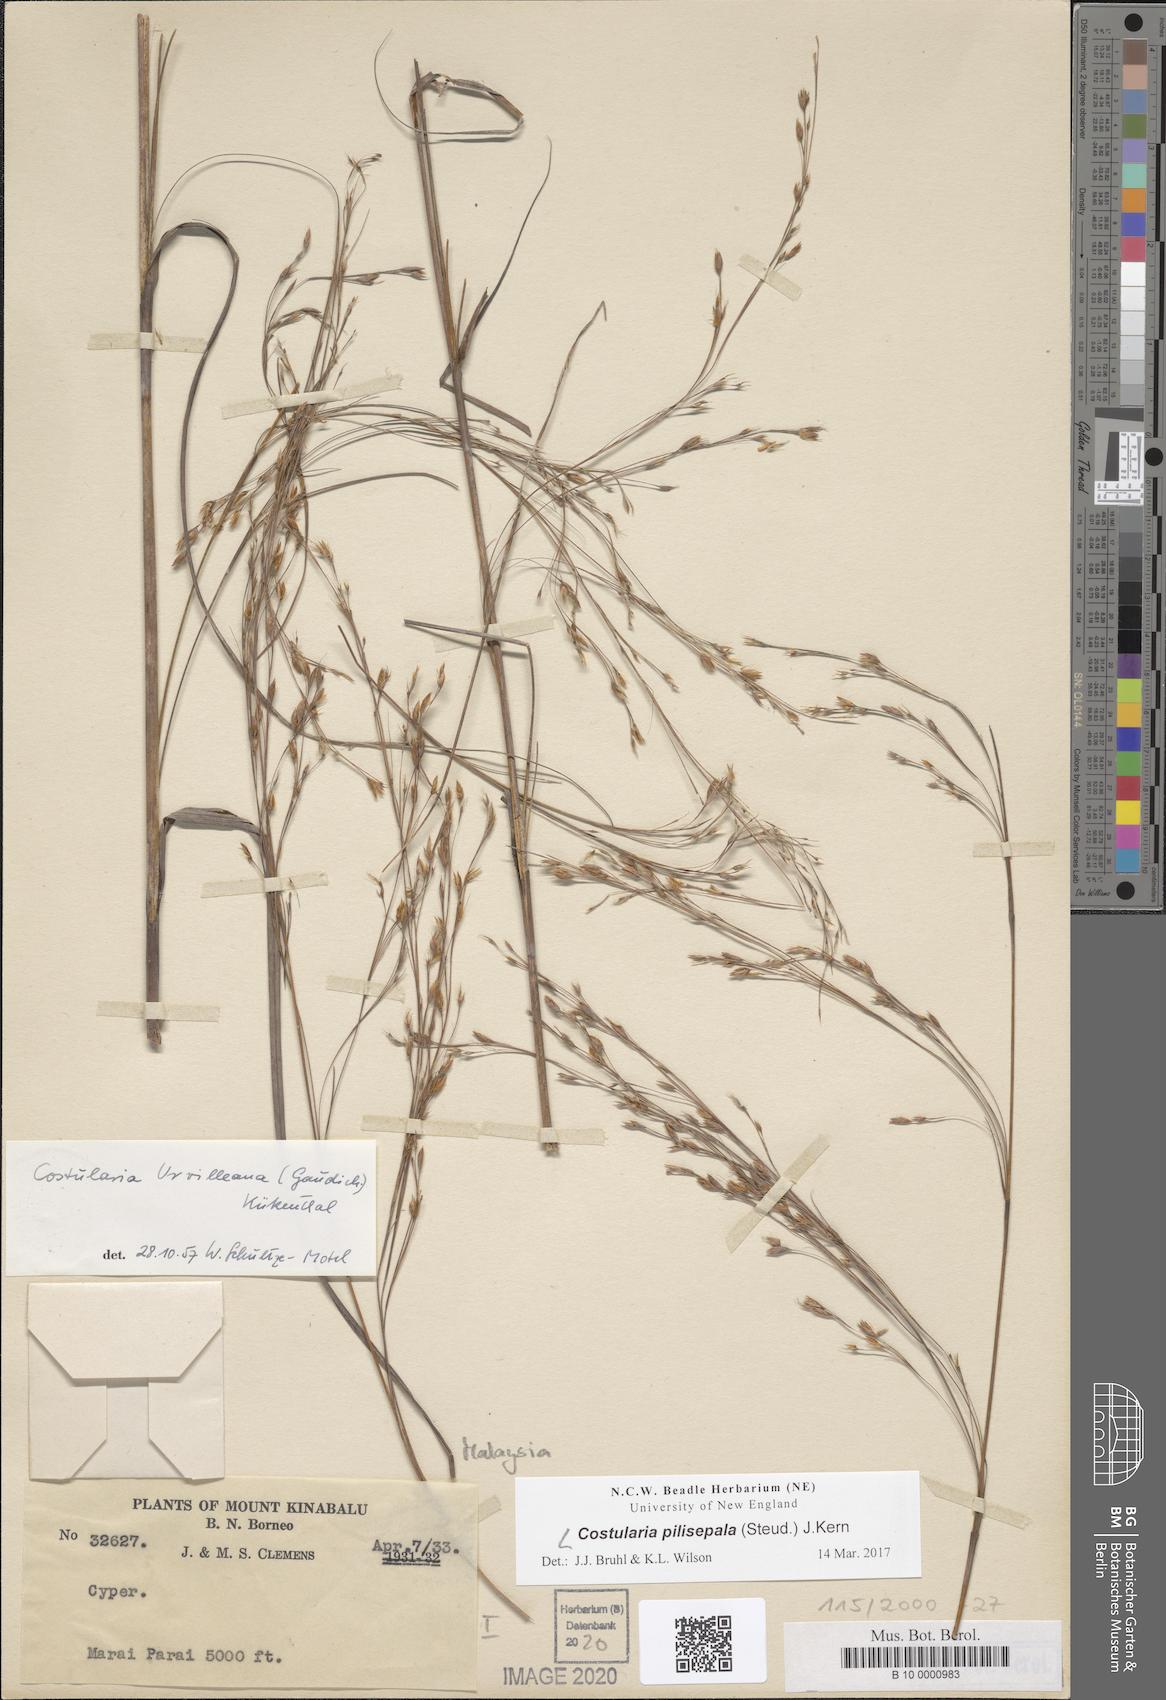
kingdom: Plantae
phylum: Tracheophyta
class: Liliopsida
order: Poales
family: Cyperaceae
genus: Tetraria
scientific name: Tetraria pilisepala
